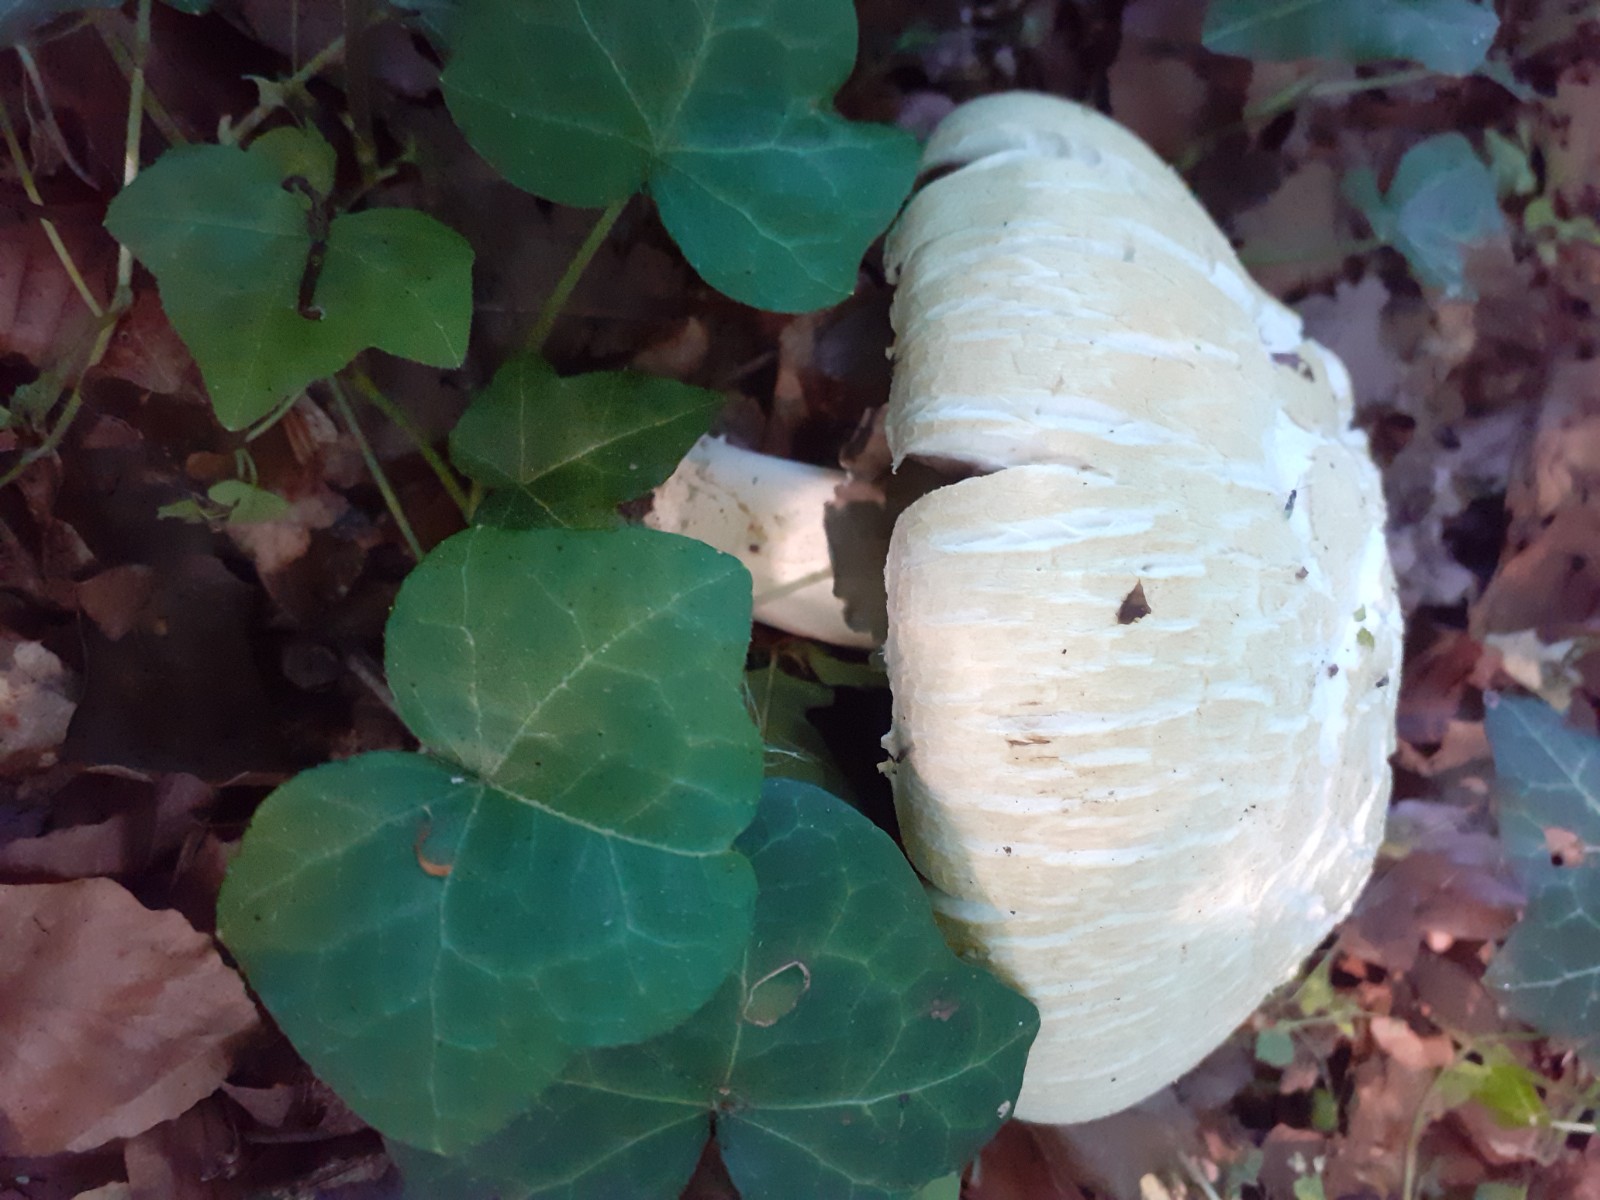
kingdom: Fungi
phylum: Basidiomycota
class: Agaricomycetes
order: Agaricales
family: Agaricaceae
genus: Agaricus
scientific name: Agaricus xanthodermus
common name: karbol-champignon
